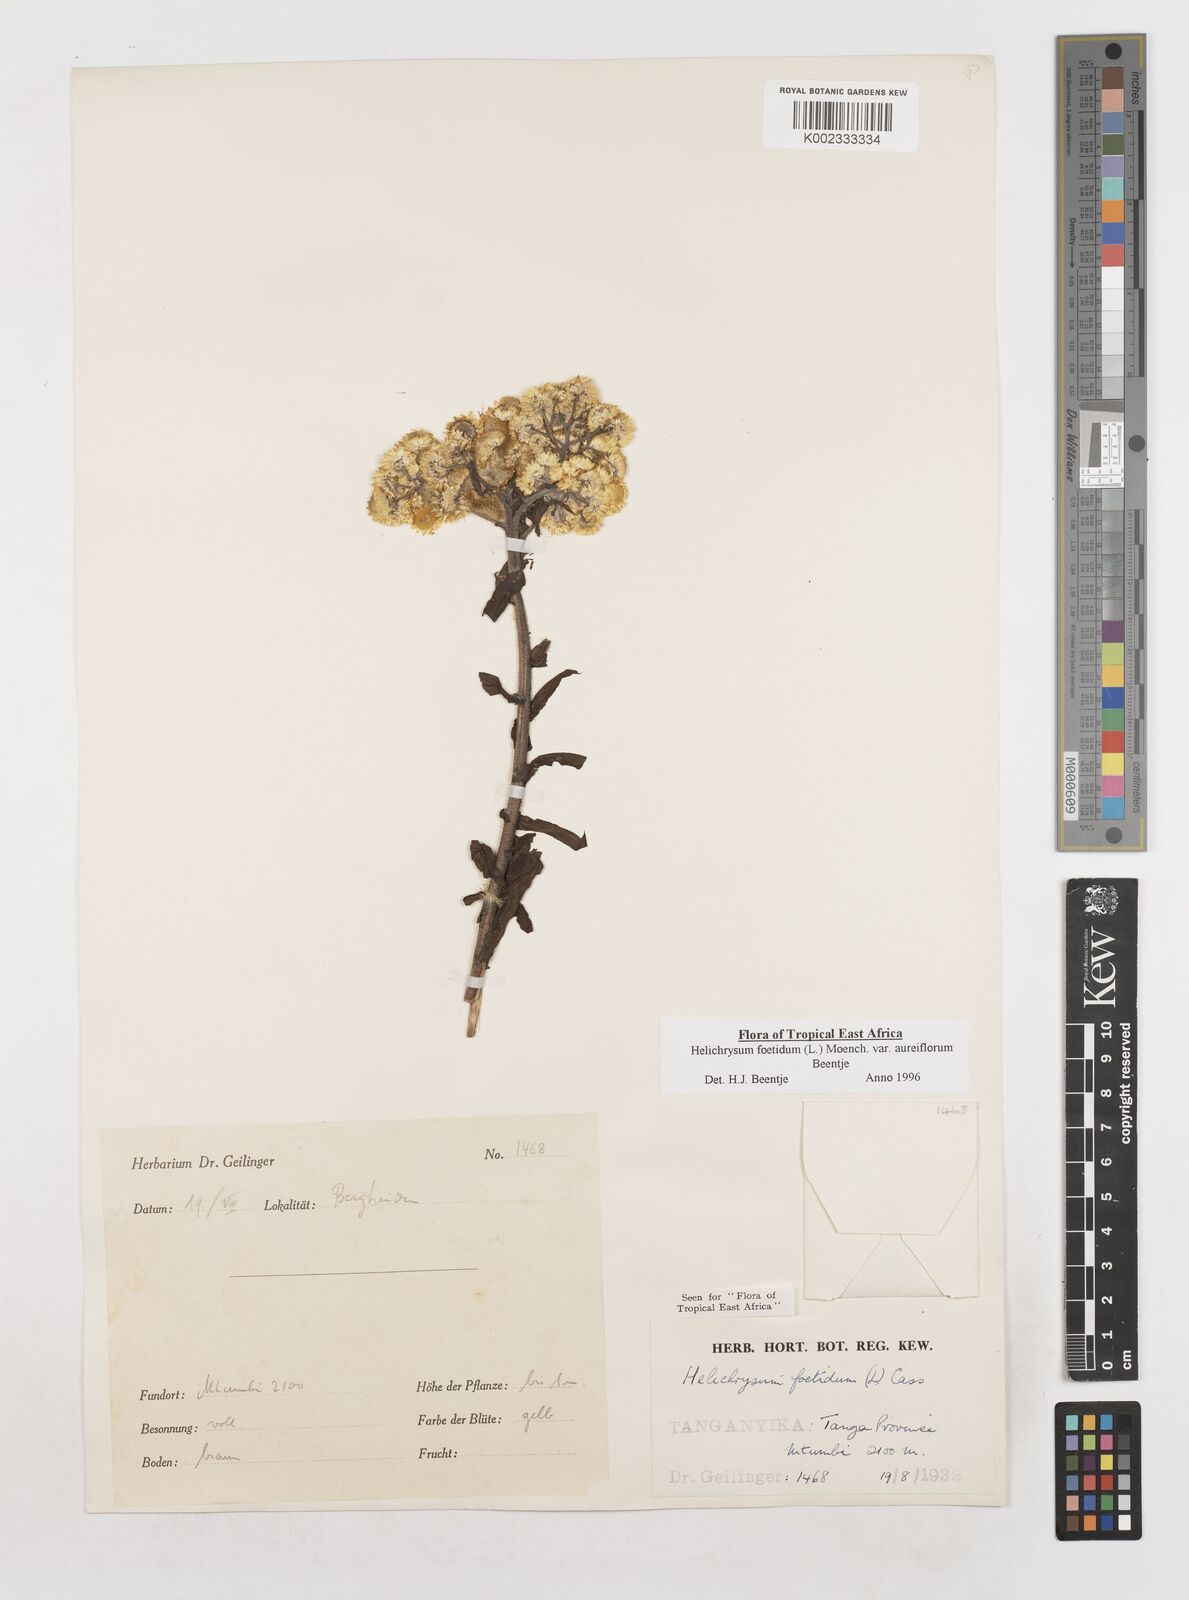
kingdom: Plantae
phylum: Tracheophyta
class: Magnoliopsida
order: Asterales
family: Asteraceae
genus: Helichrysum
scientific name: Helichrysum foetidum
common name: Stinking everlasting
